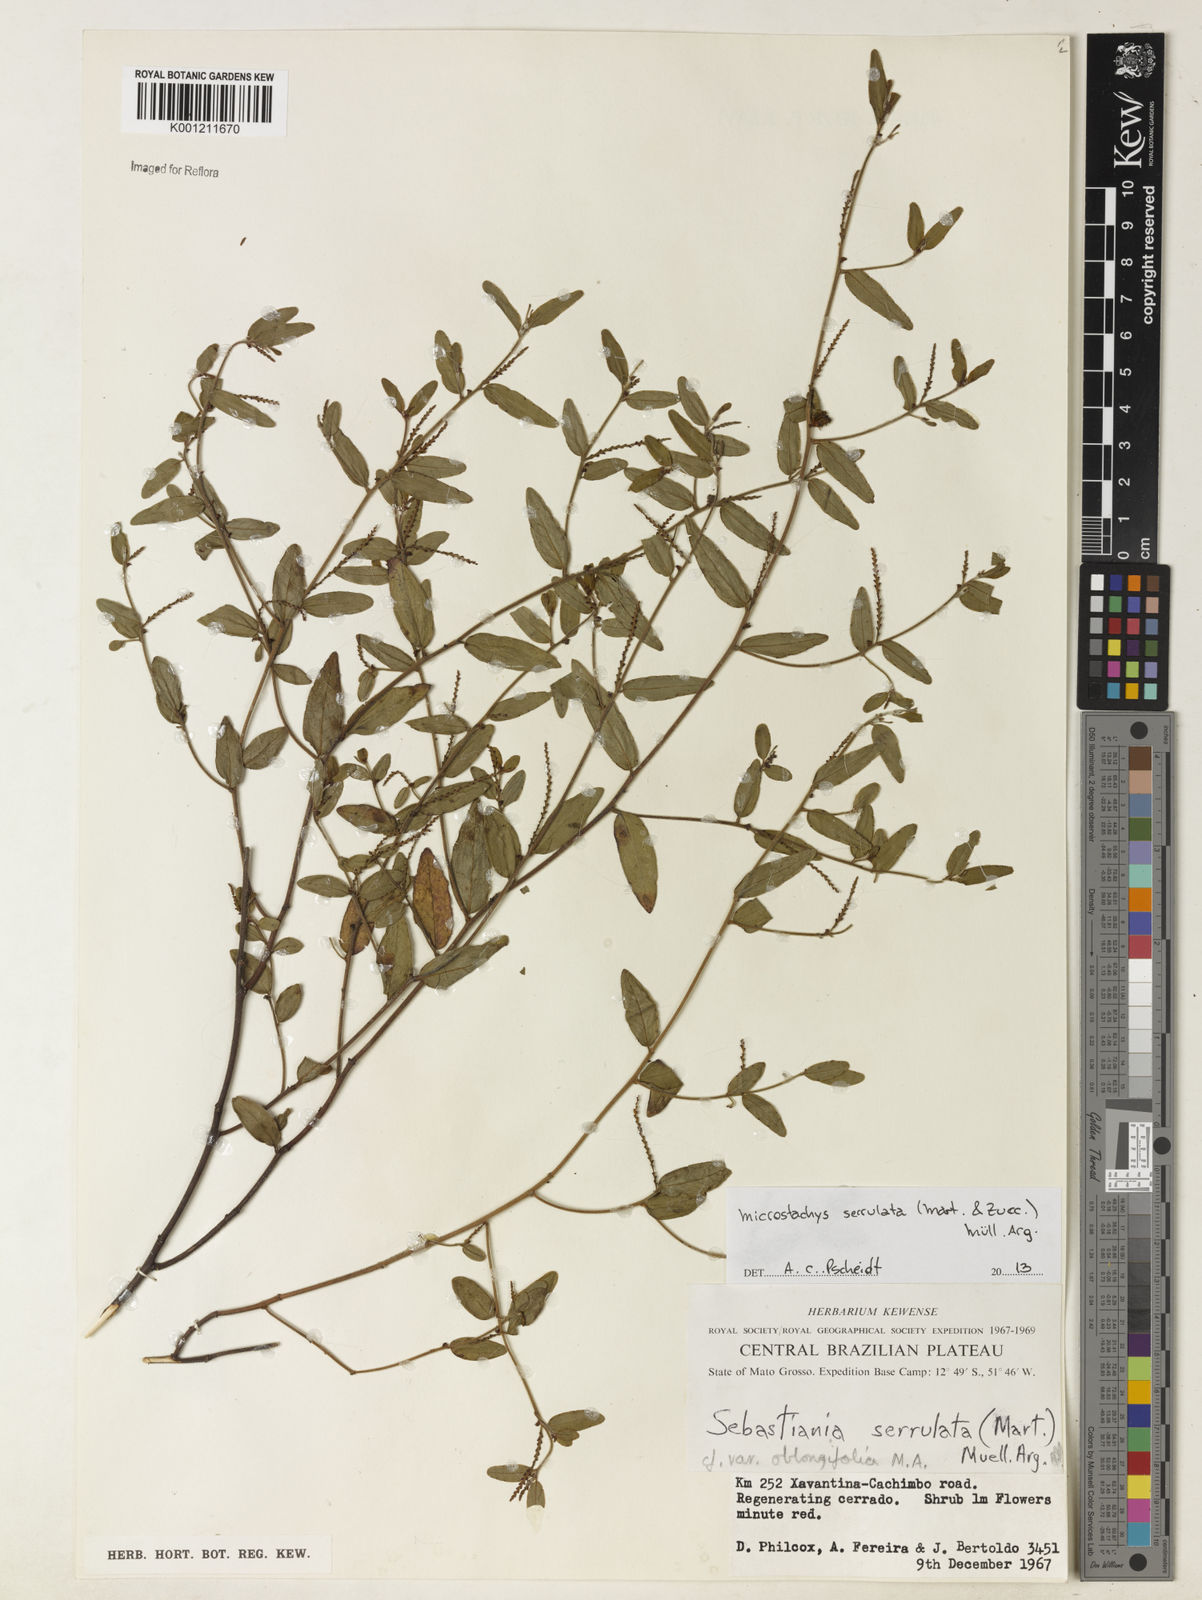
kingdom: Plantae
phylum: Tracheophyta
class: Magnoliopsida
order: Malpighiales
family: Euphorbiaceae
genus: Microstachys
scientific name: Microstachys
